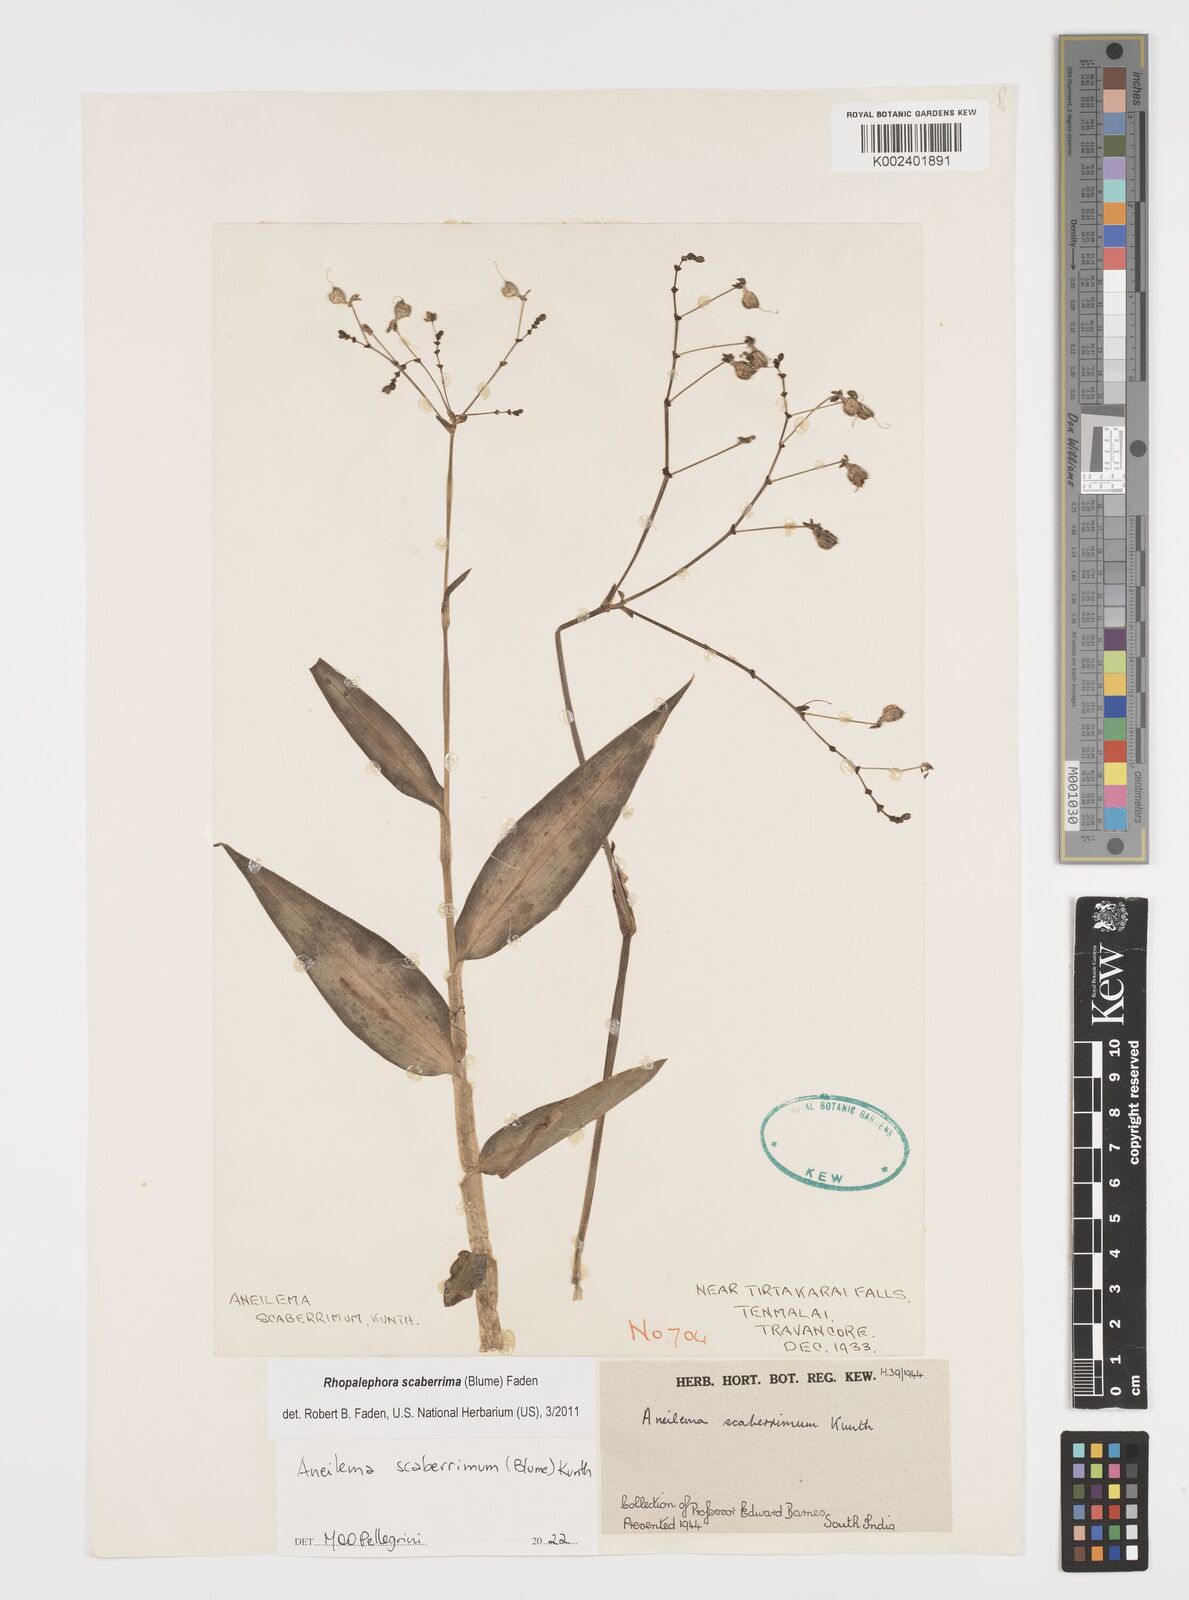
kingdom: Plantae
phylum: Tracheophyta
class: Liliopsida
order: Commelinales
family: Commelinaceae
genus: Rhopalephora
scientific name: Rhopalephora scaberrima
